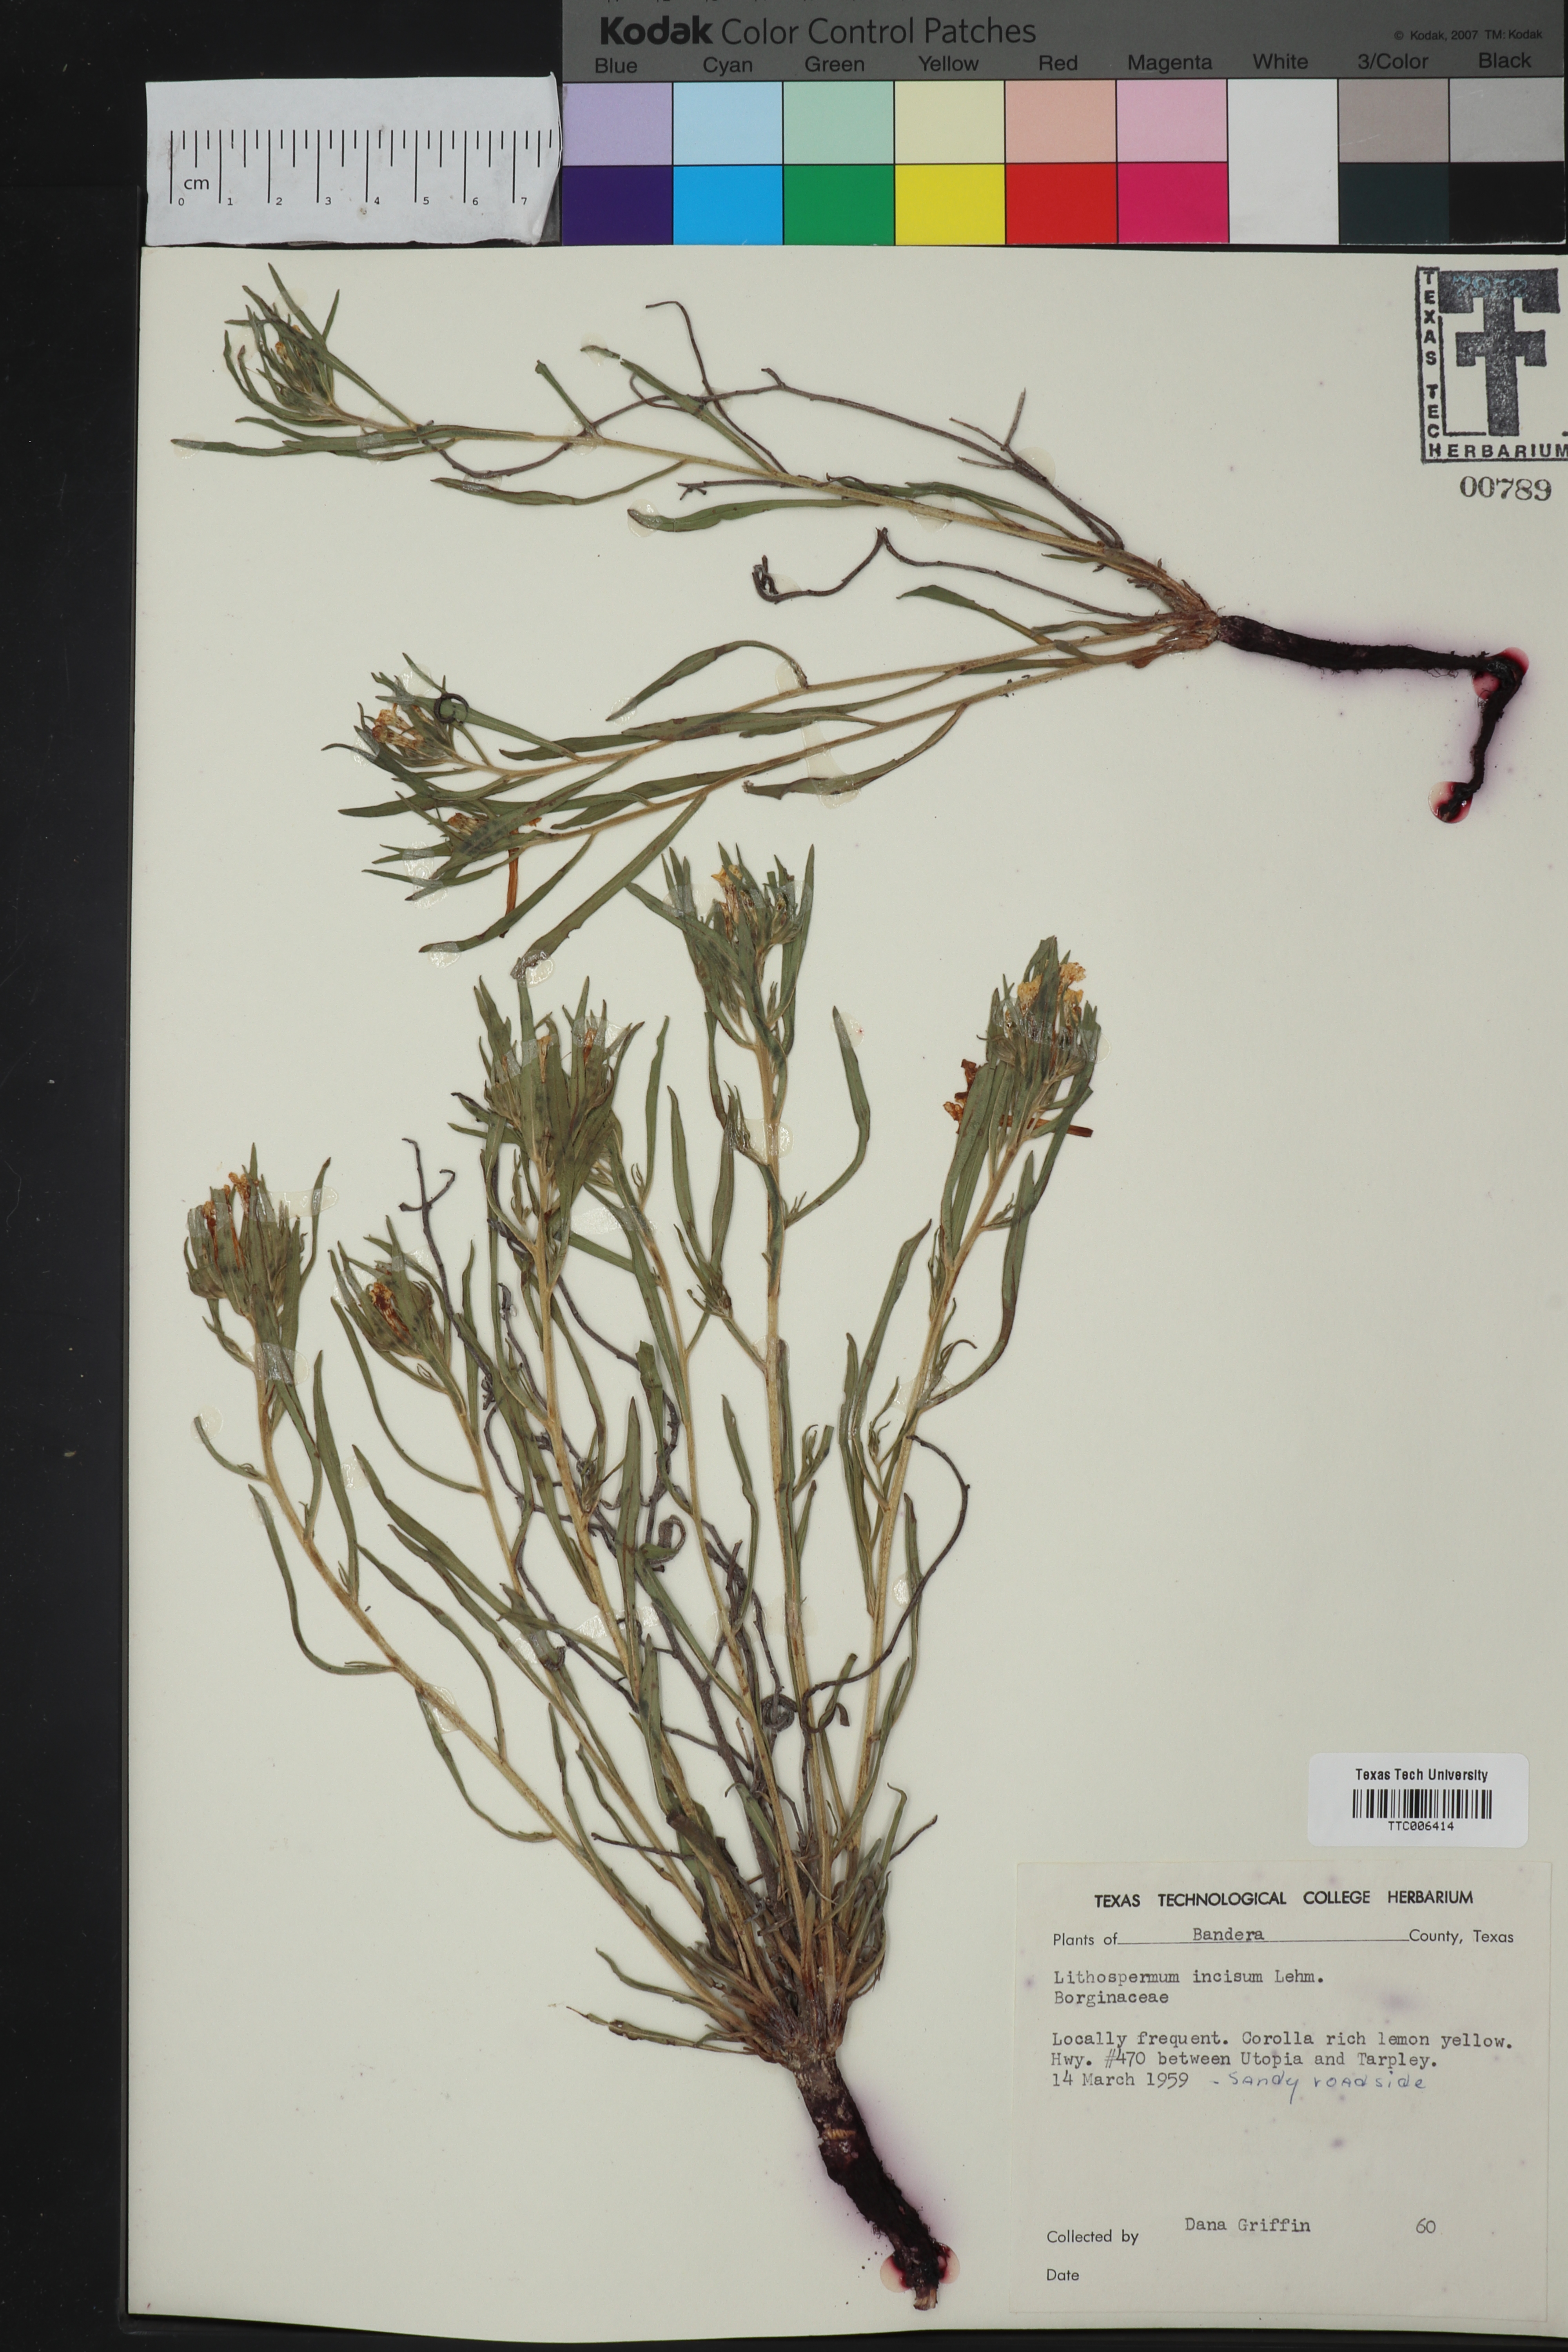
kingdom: Plantae
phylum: Tracheophyta
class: Magnoliopsida
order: Boraginales
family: Boraginaceae
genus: Lithospermum
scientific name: Lithospermum incisum
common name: Fringed gromwell
